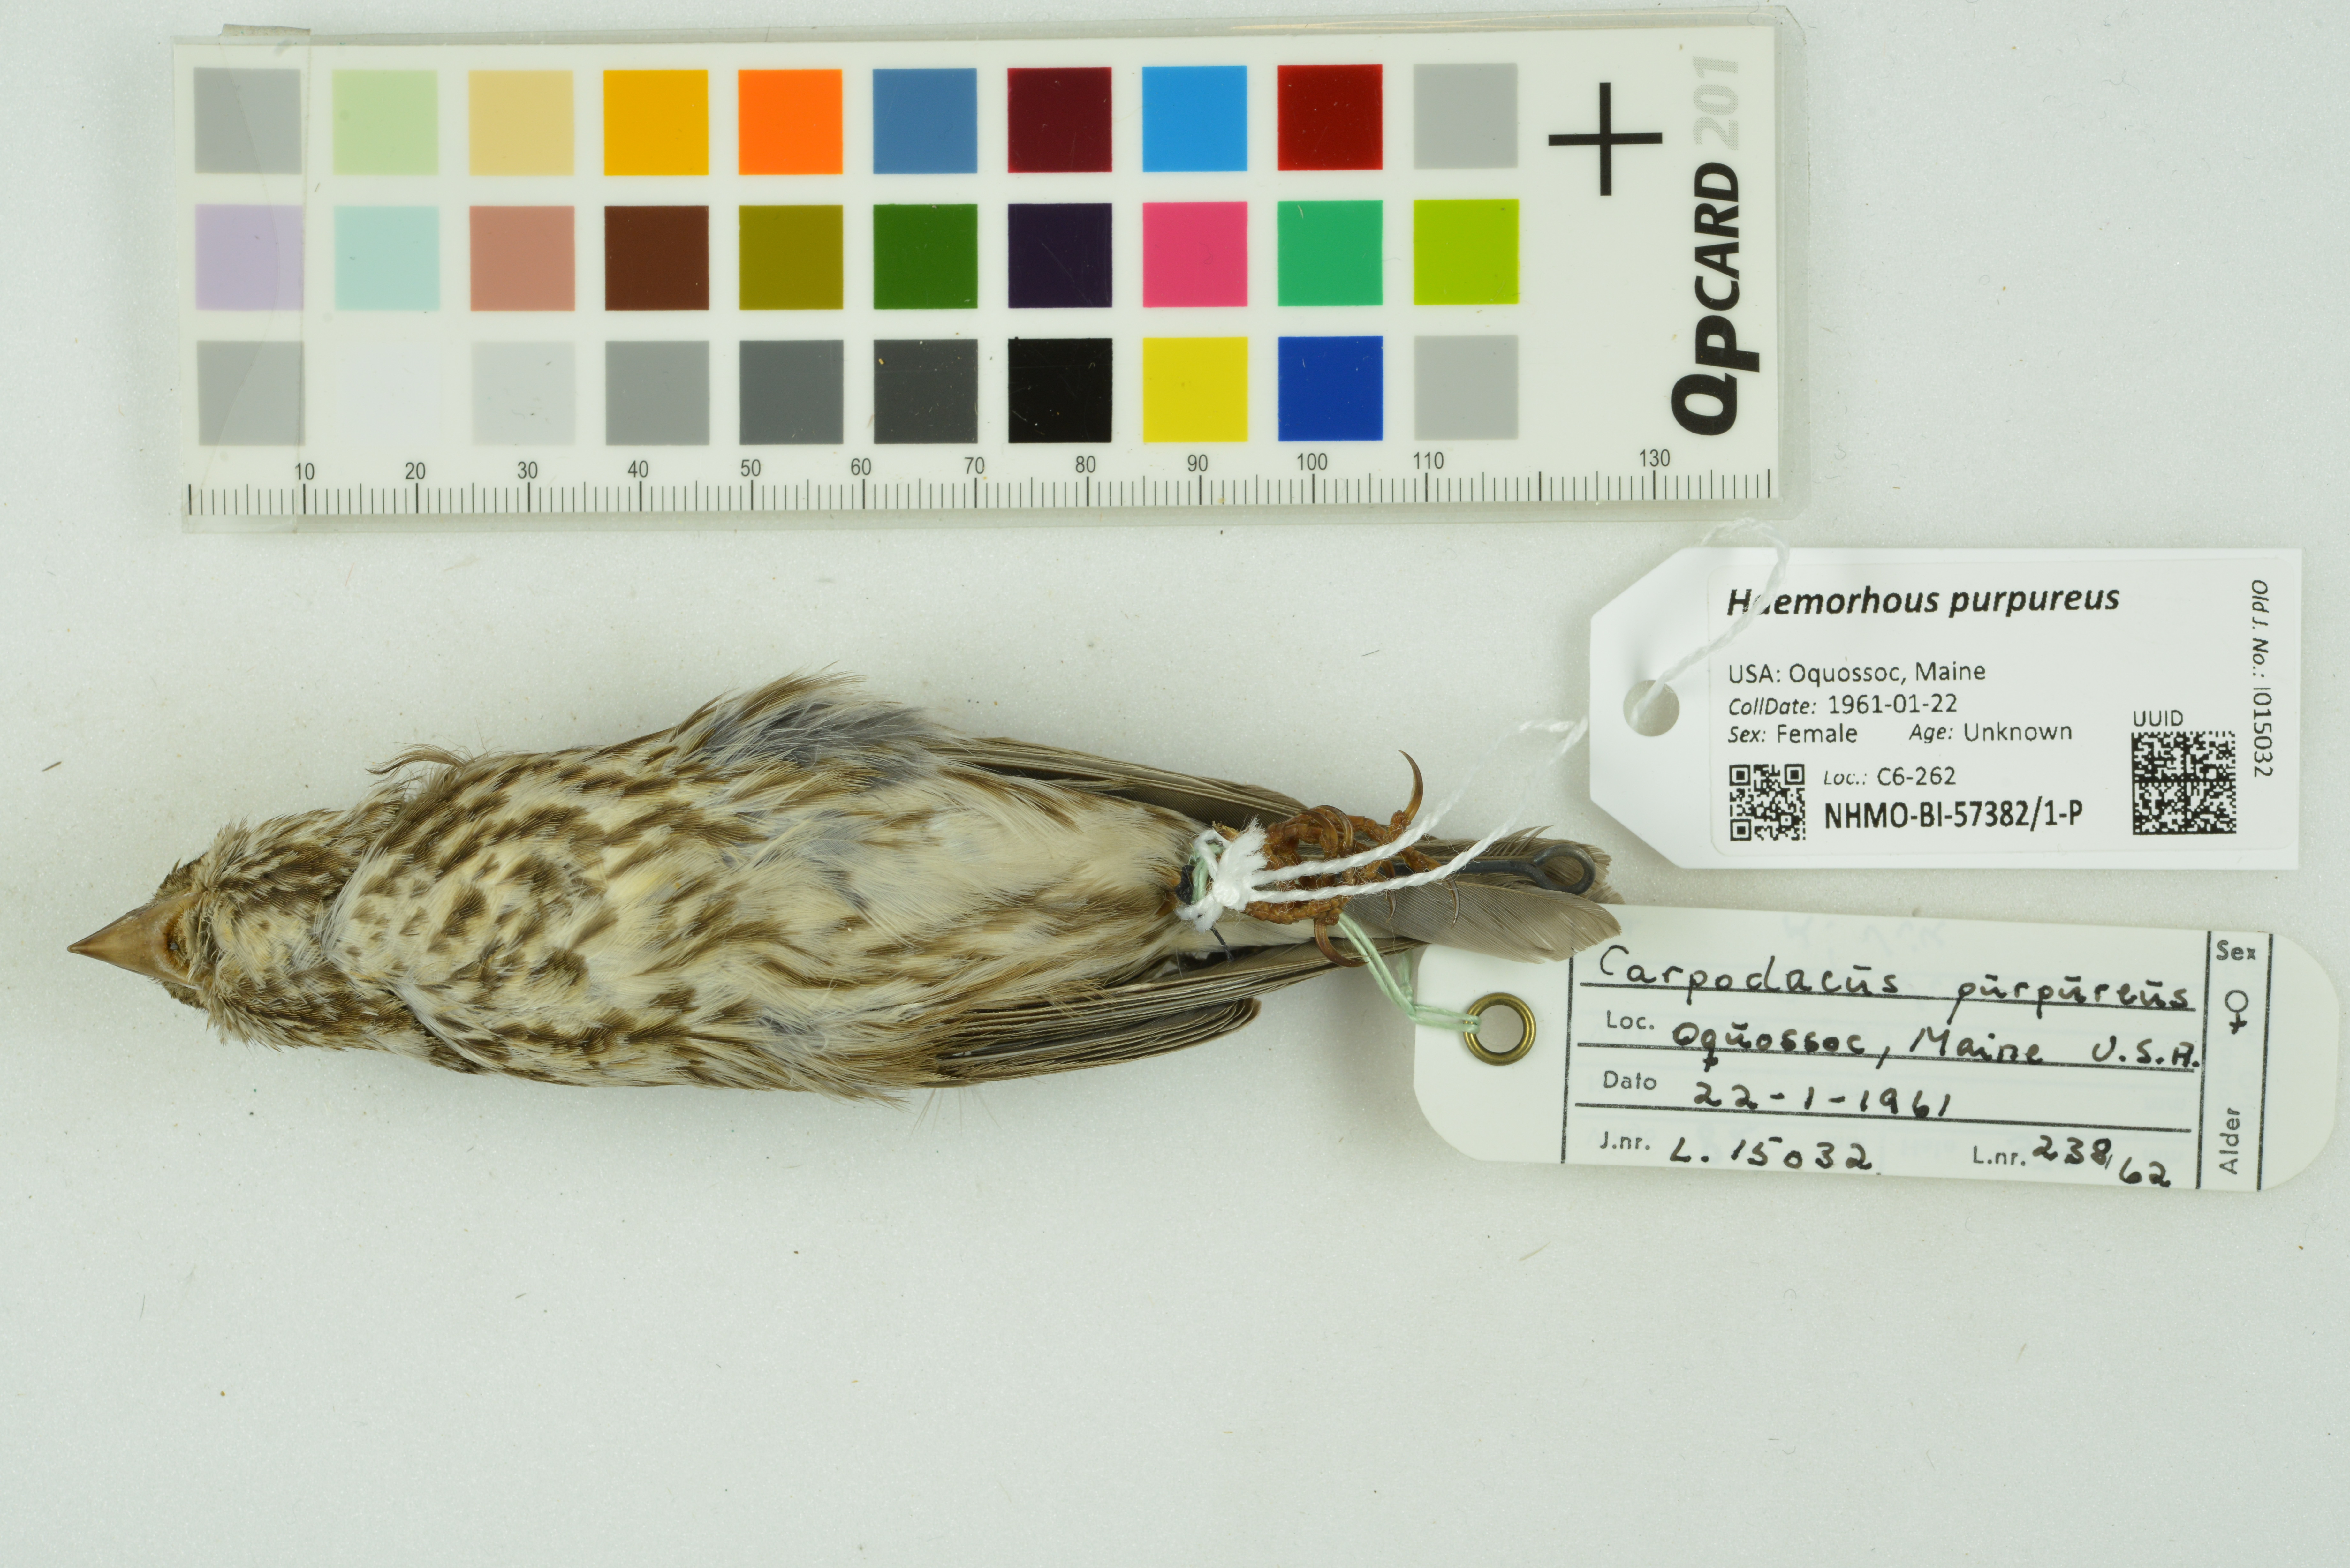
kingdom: Animalia
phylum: Chordata
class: Aves
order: Passeriformes
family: Fringillidae
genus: Haemorhous
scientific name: Haemorhous purpureus
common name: Purple finch
